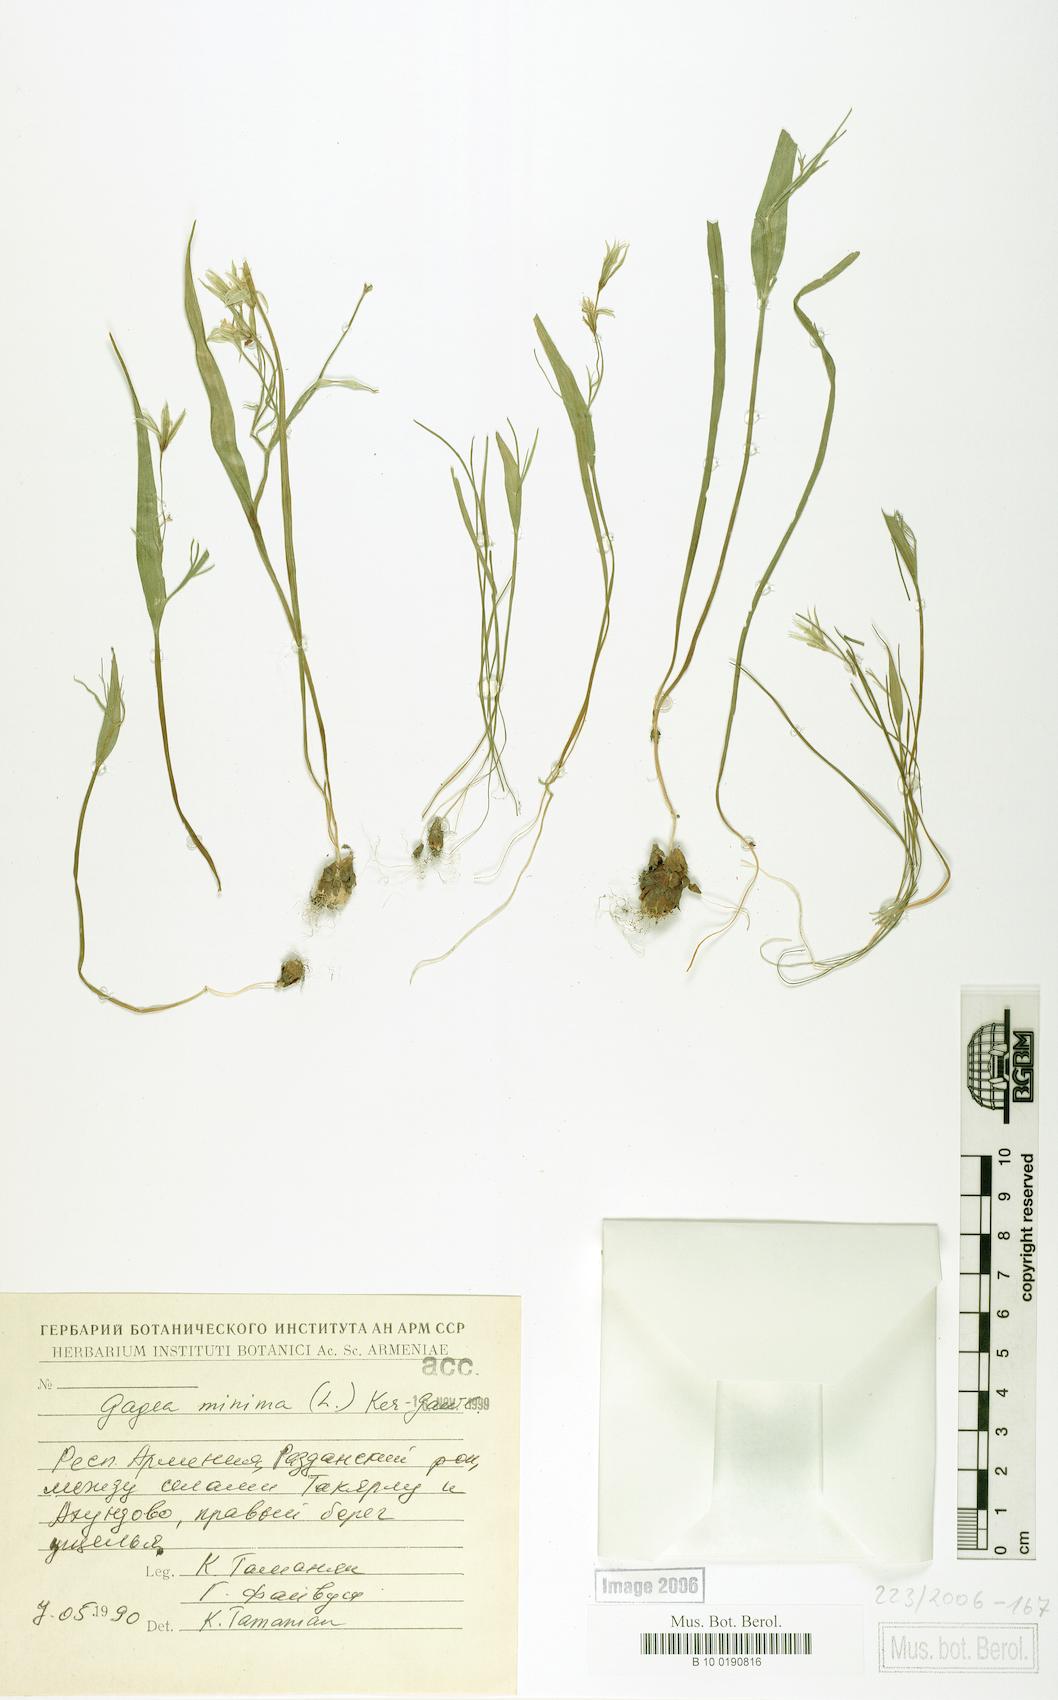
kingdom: Plantae
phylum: Tracheophyta
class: Liliopsida
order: Liliales
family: Liliaceae
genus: Gagea
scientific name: Gagea minima
